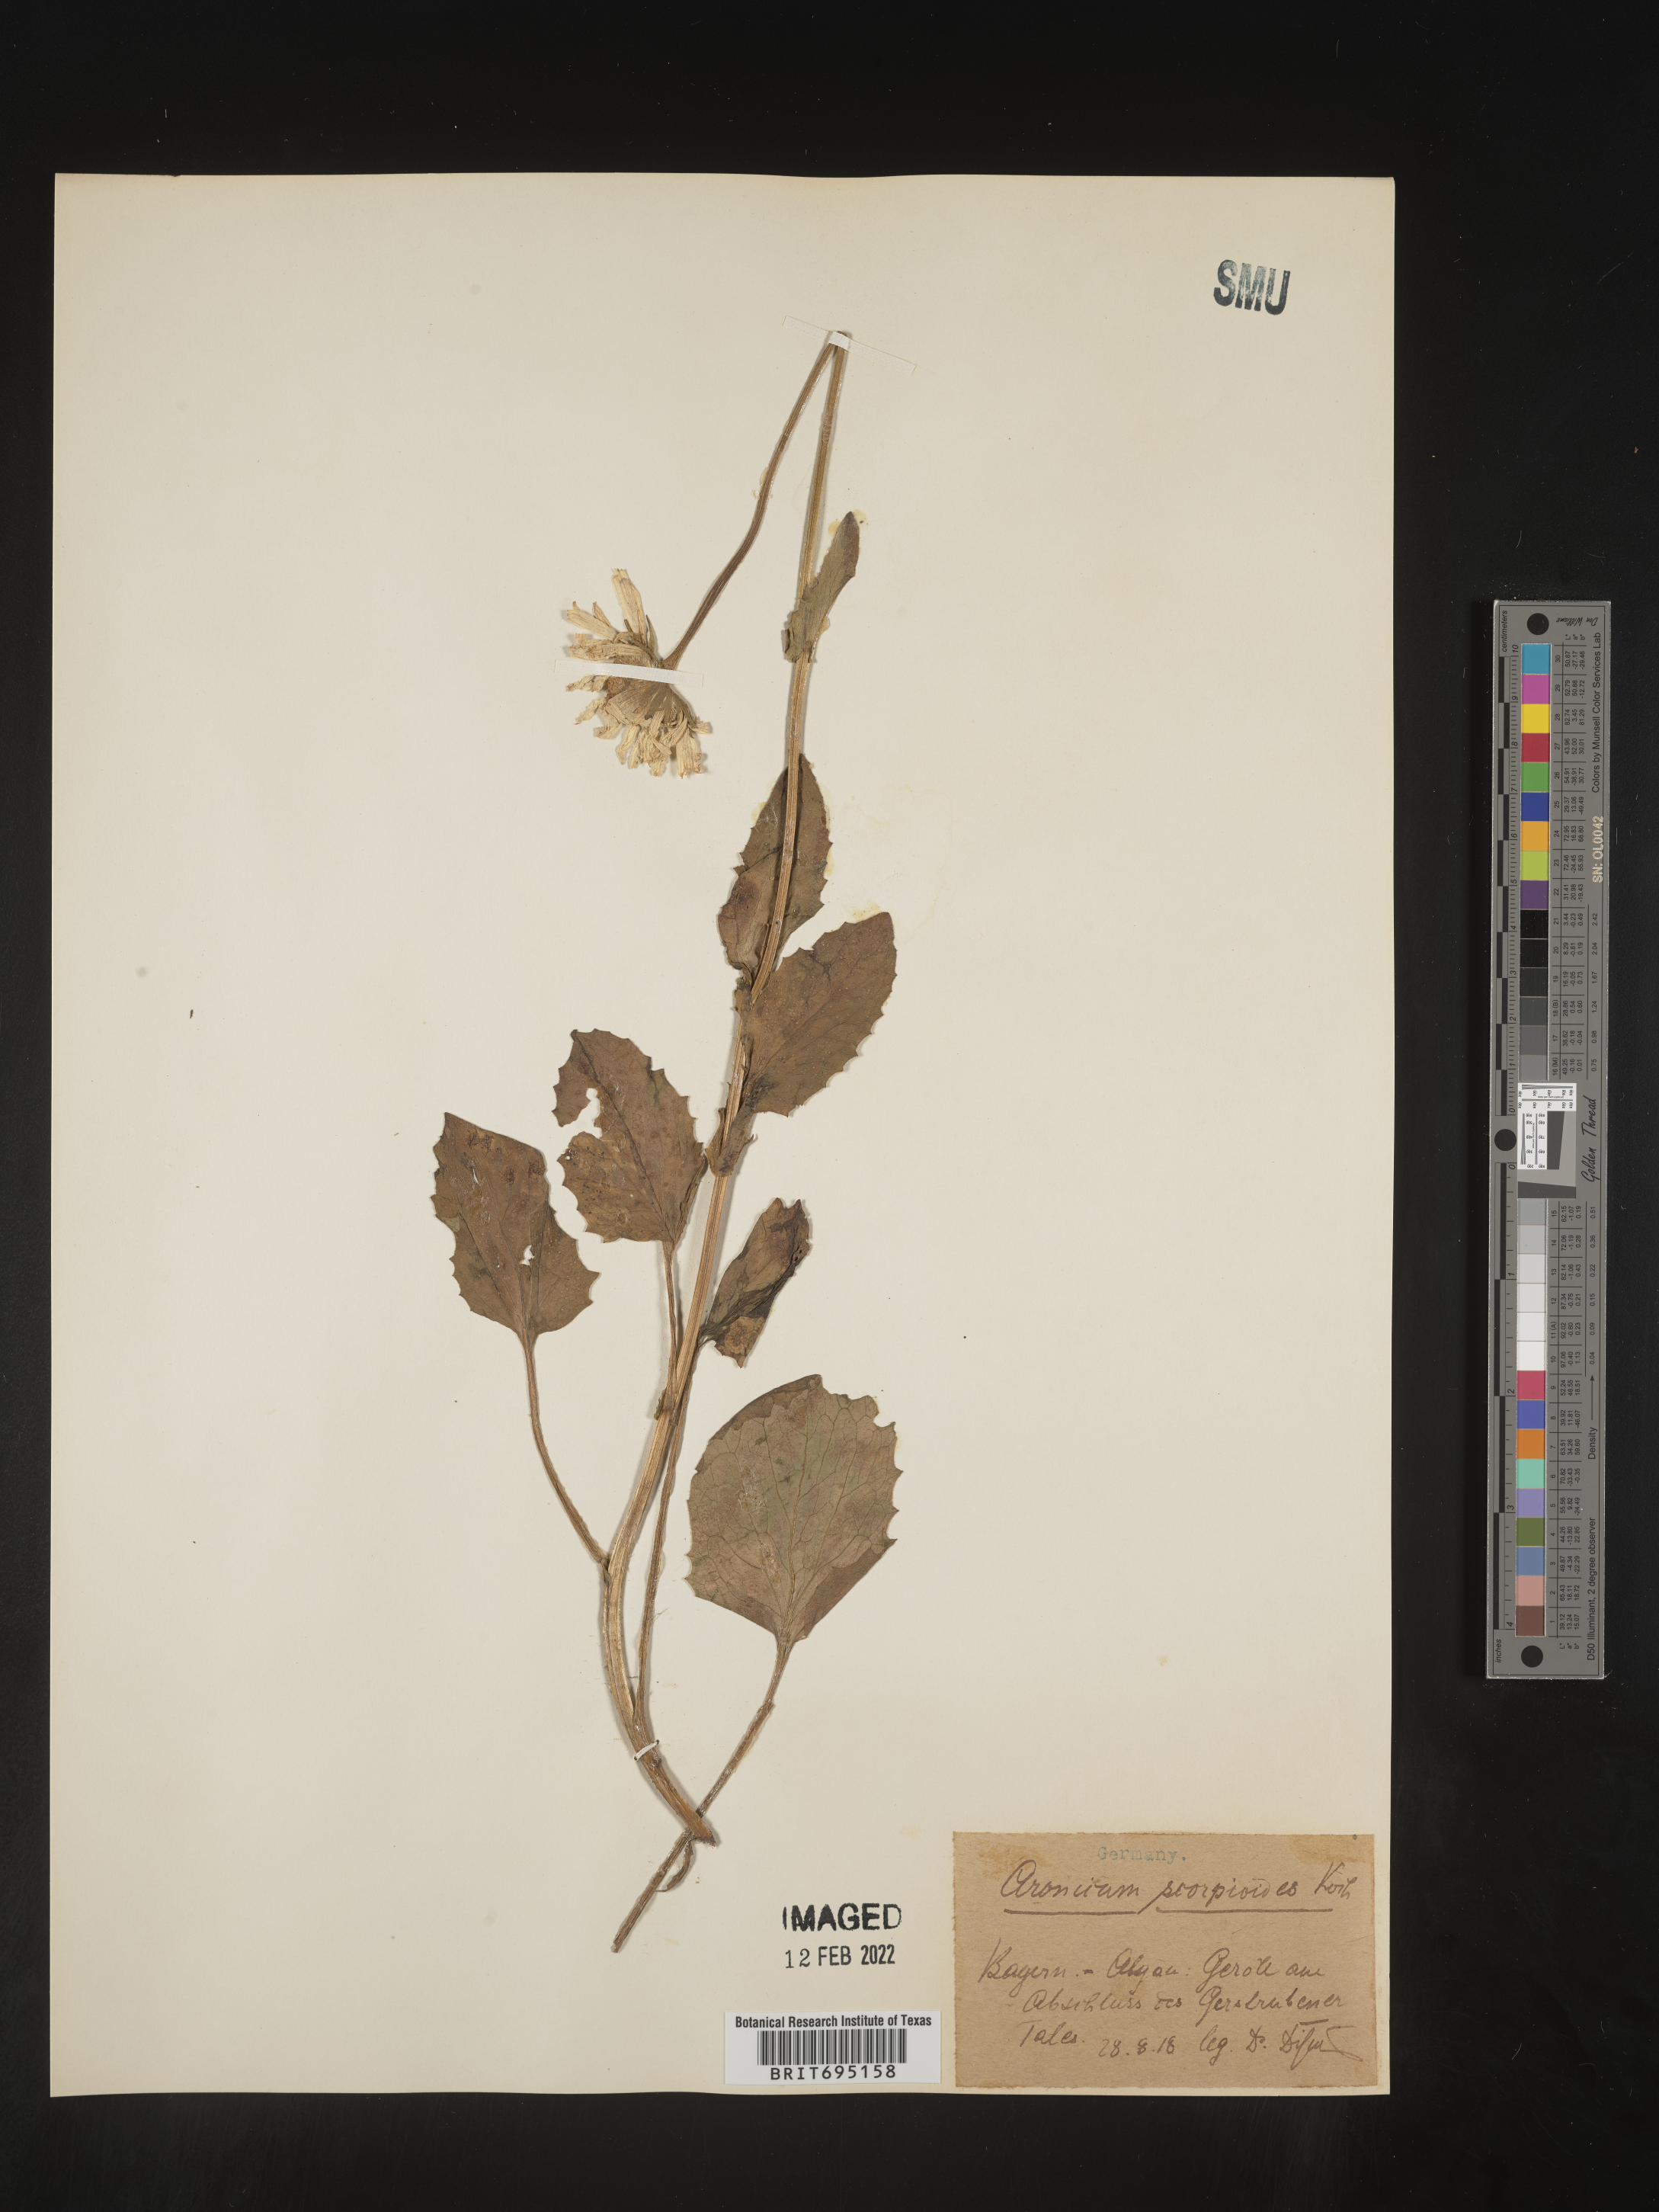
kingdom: Plantae
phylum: Tracheophyta
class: Magnoliopsida
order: Asterales
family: Asteraceae
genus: Doronicum
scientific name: Doronicum
